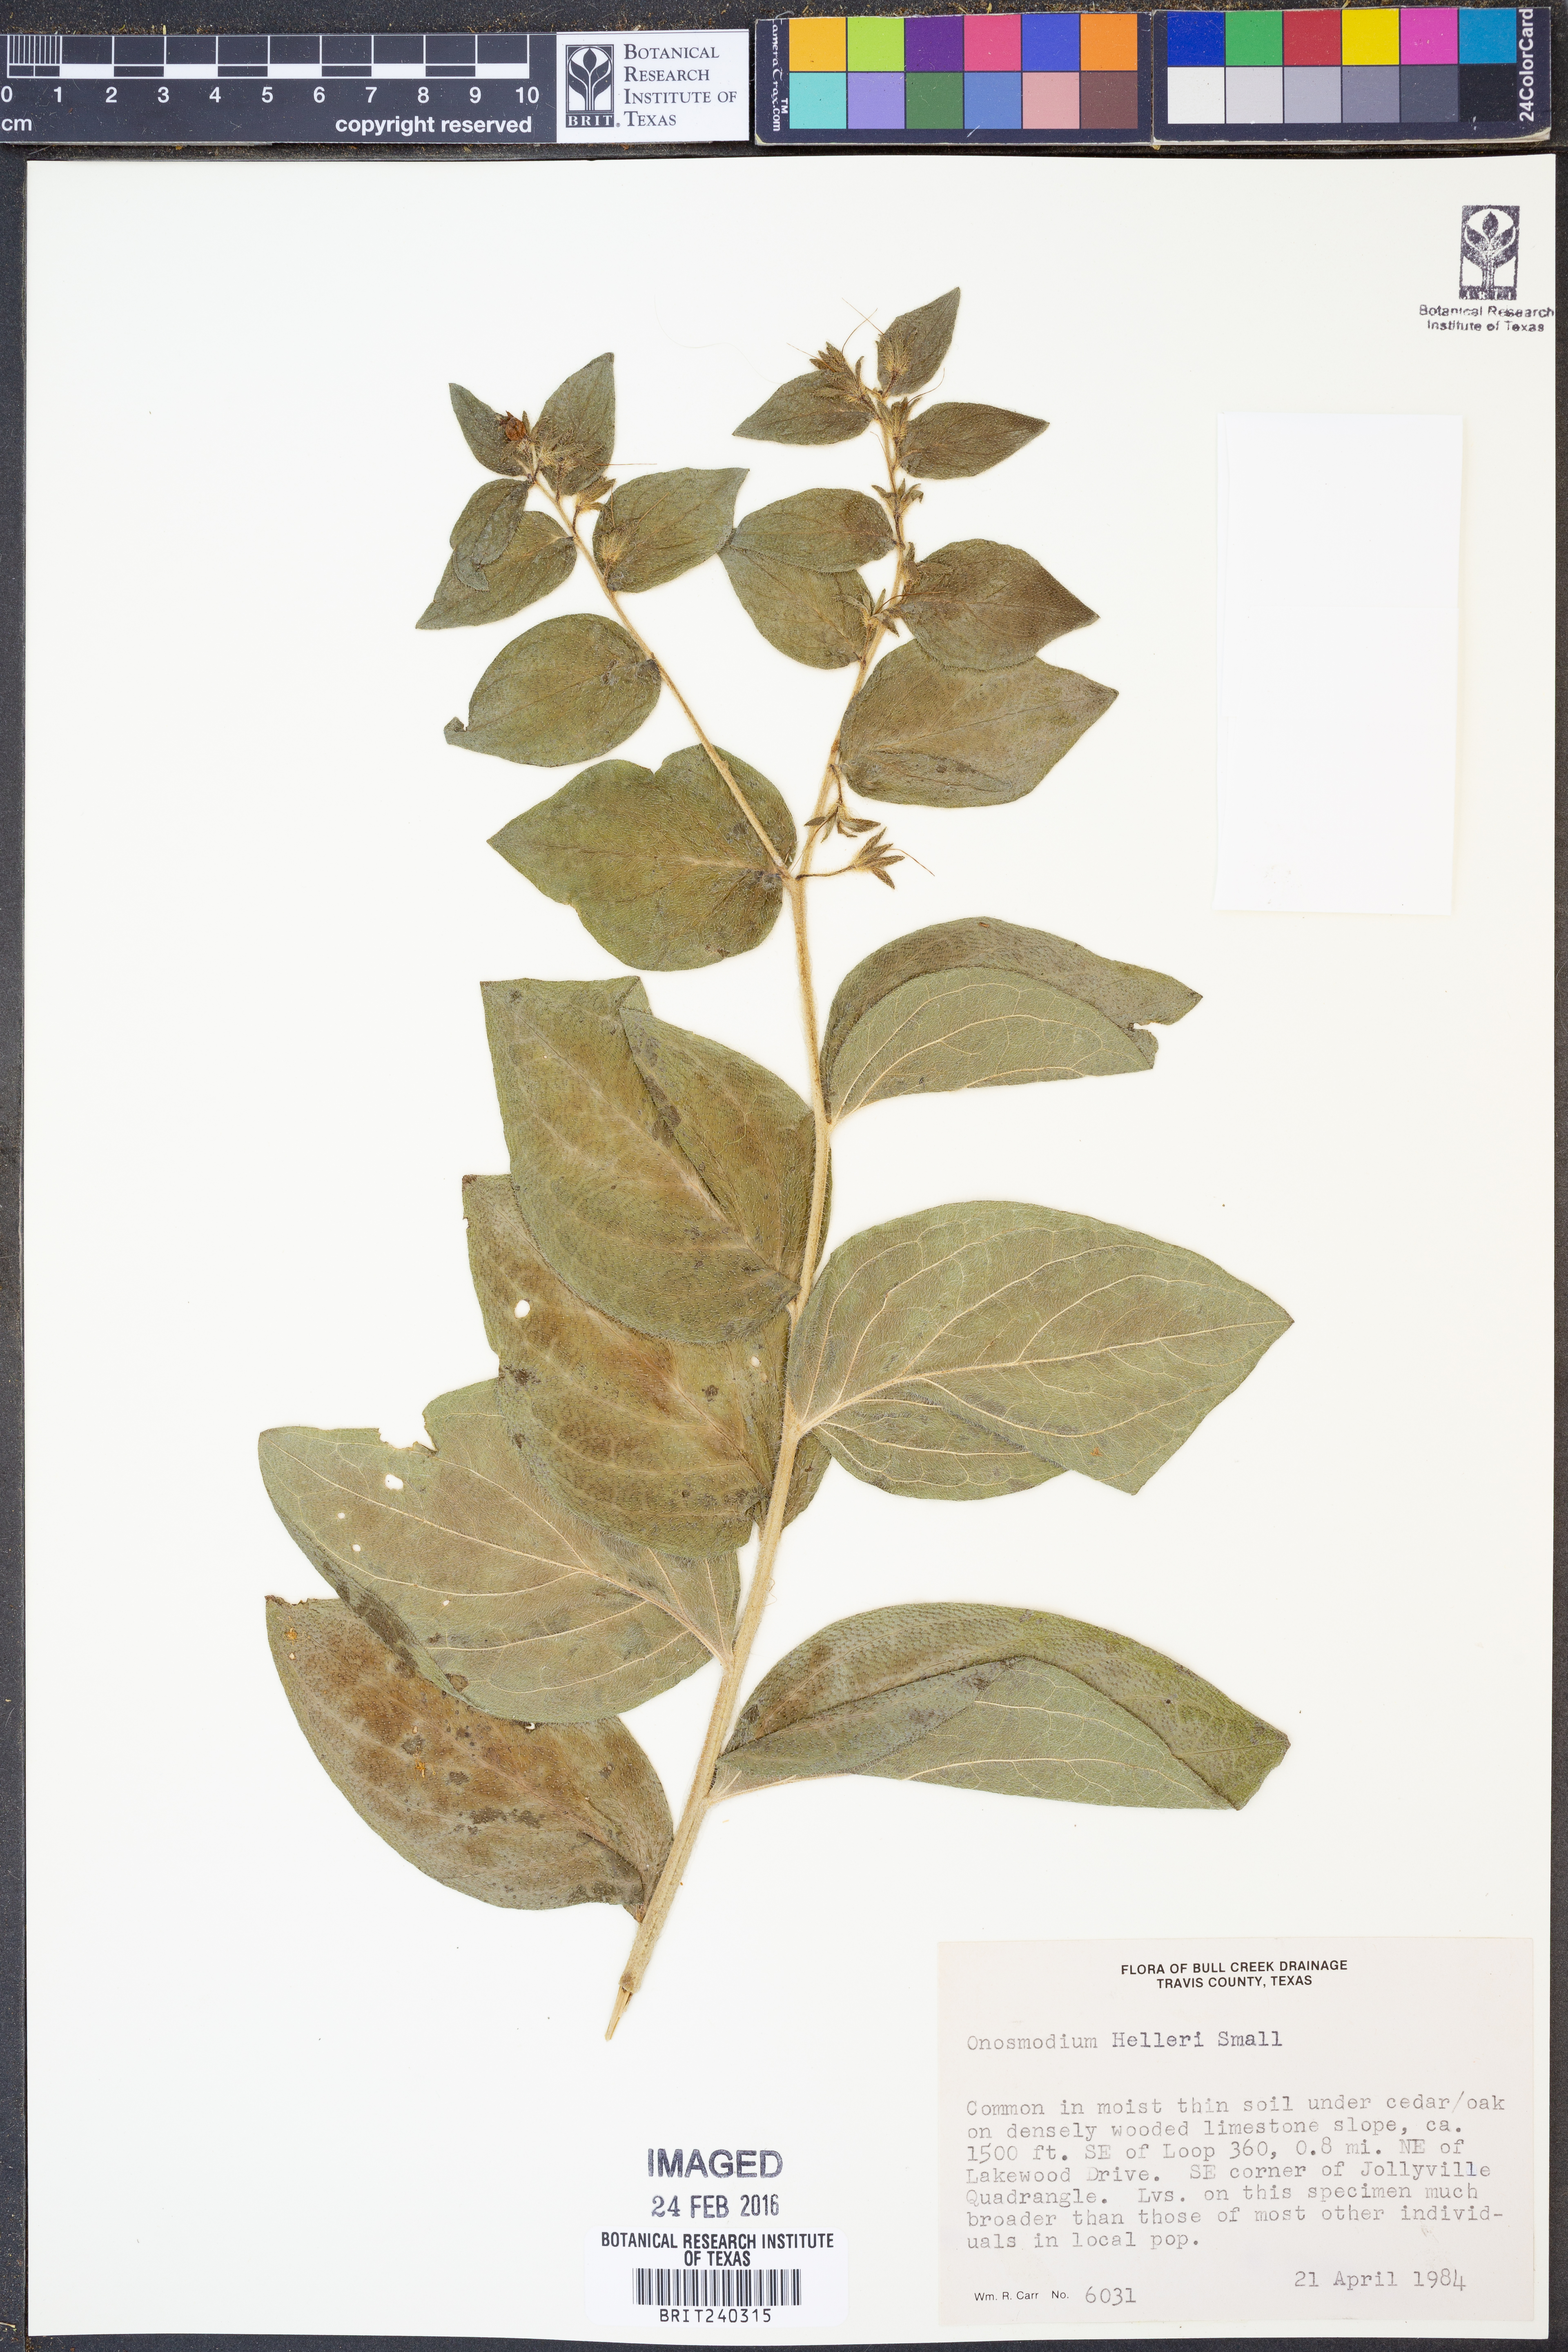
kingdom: Plantae
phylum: Tracheophyta
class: Magnoliopsida
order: Boraginales
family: Boraginaceae
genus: Lithospermum
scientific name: Lithospermum helleri
